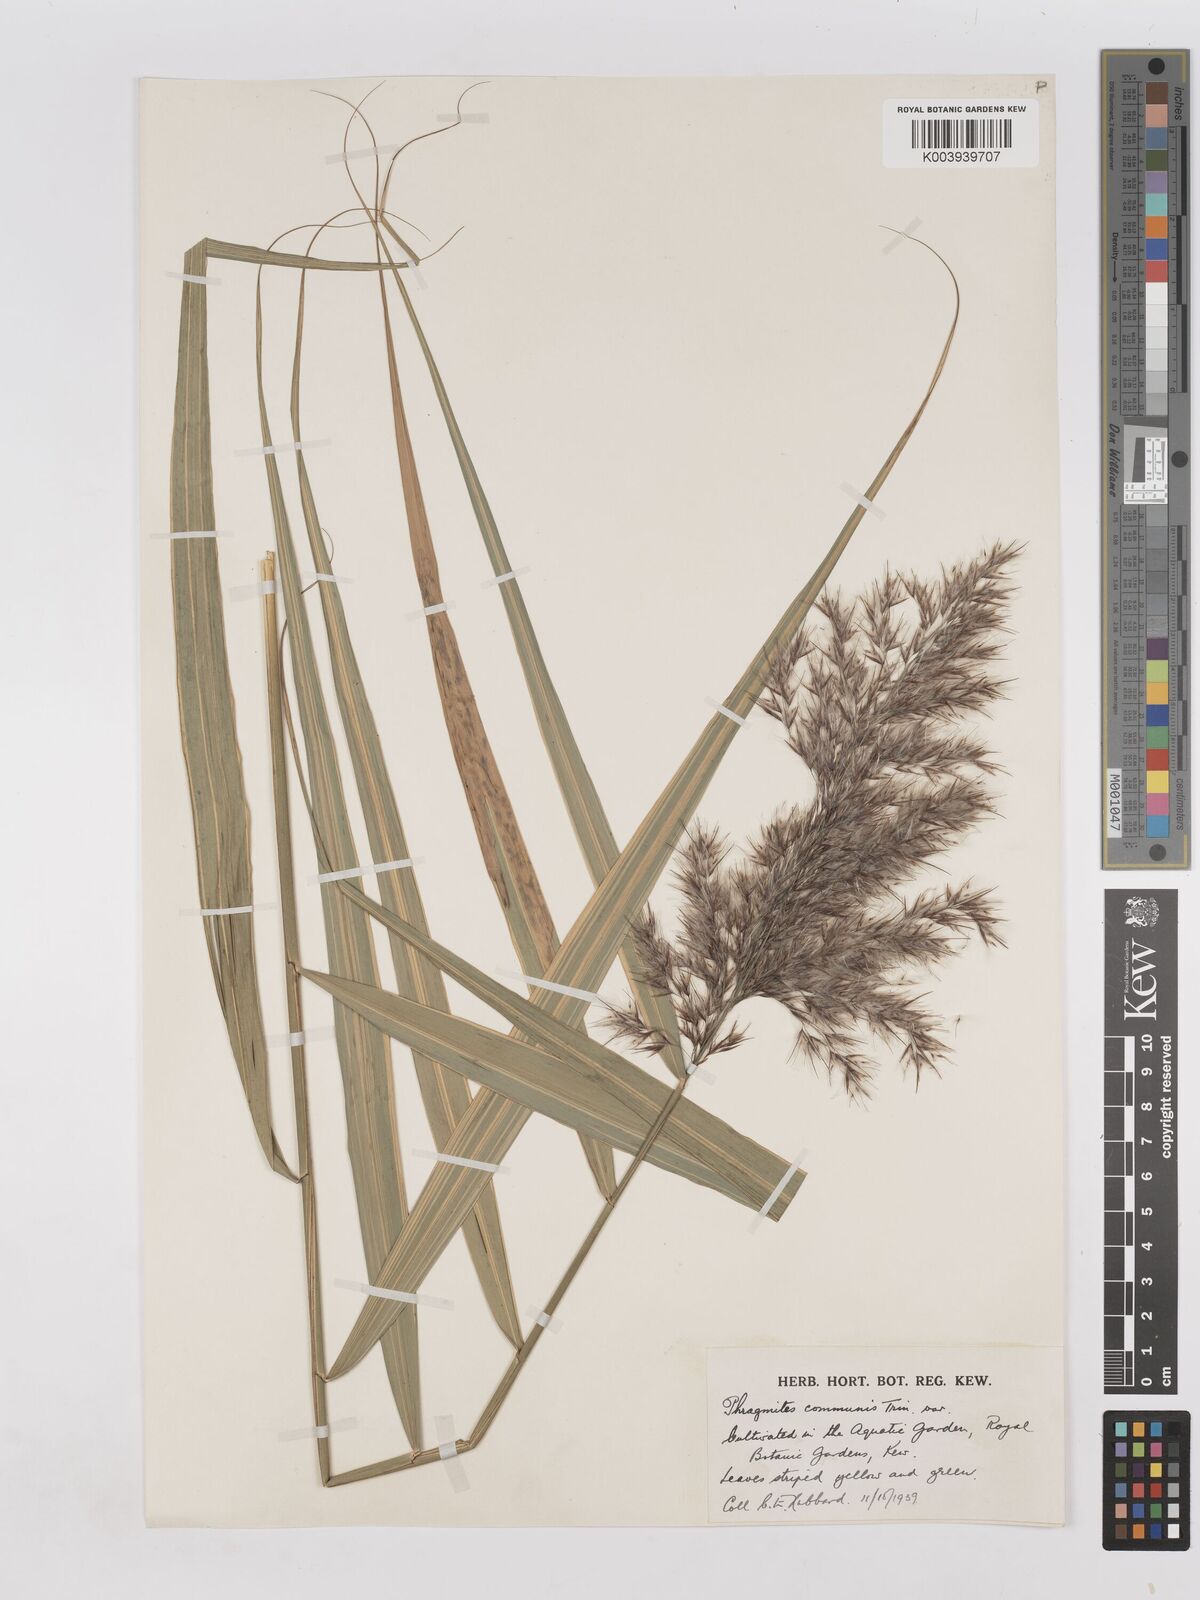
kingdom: Plantae
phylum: Tracheophyta
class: Liliopsida
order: Poales
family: Poaceae
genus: Phragmites
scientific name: Phragmites australis
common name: Common reed
